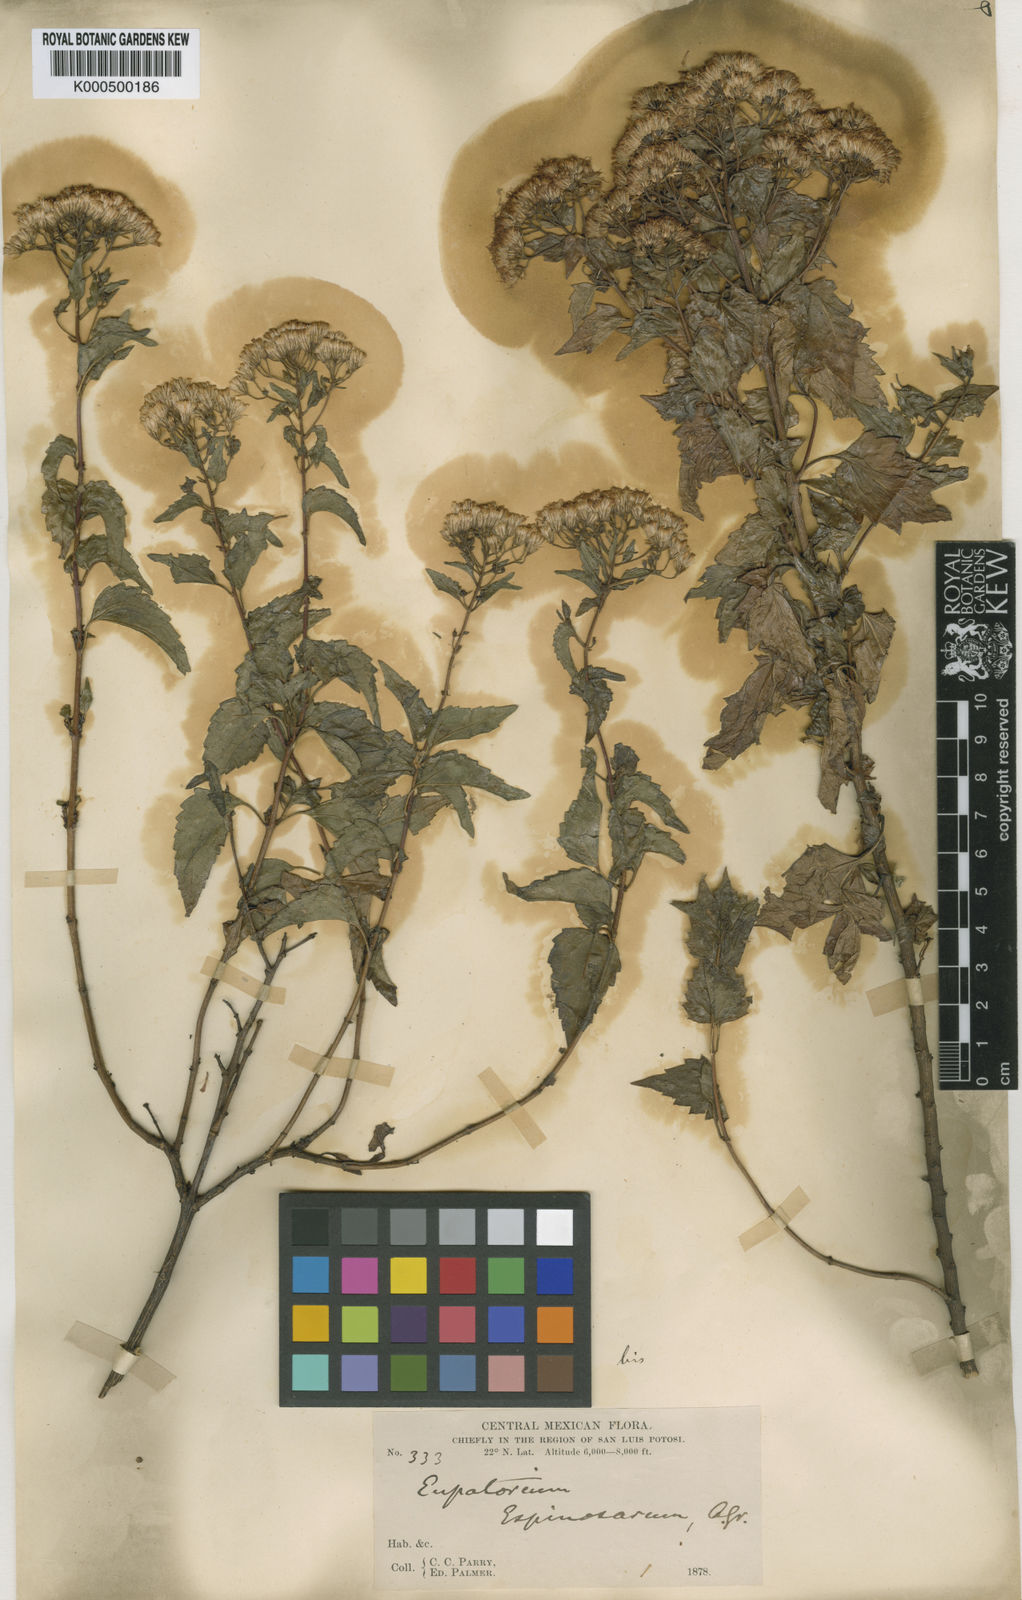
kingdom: Plantae
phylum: Tracheophyta
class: Magnoliopsida
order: Asterales
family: Asteraceae
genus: Ageratina
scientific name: Ageratina espinosarum
